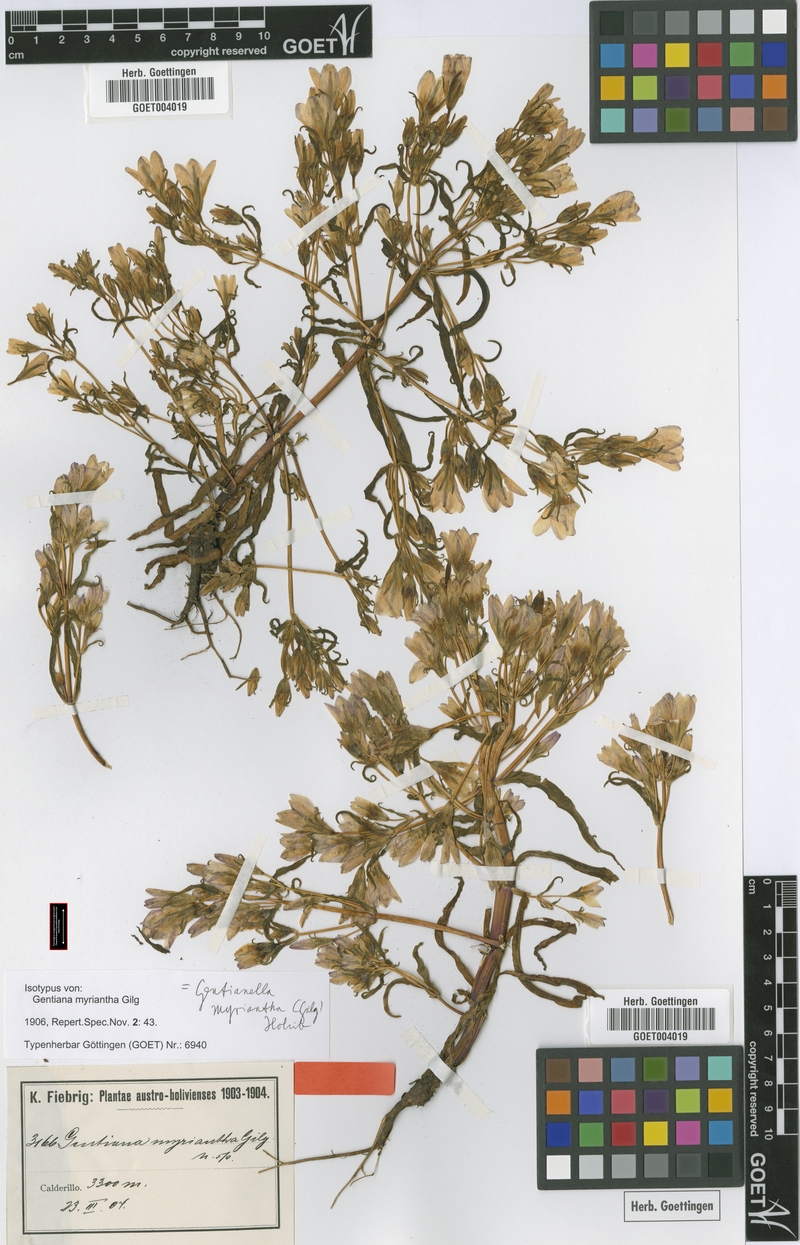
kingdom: Plantae
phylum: Tracheophyta
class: Magnoliopsida
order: Gentianales
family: Gentianaceae
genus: Gentianella
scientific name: Gentianella myriantha
